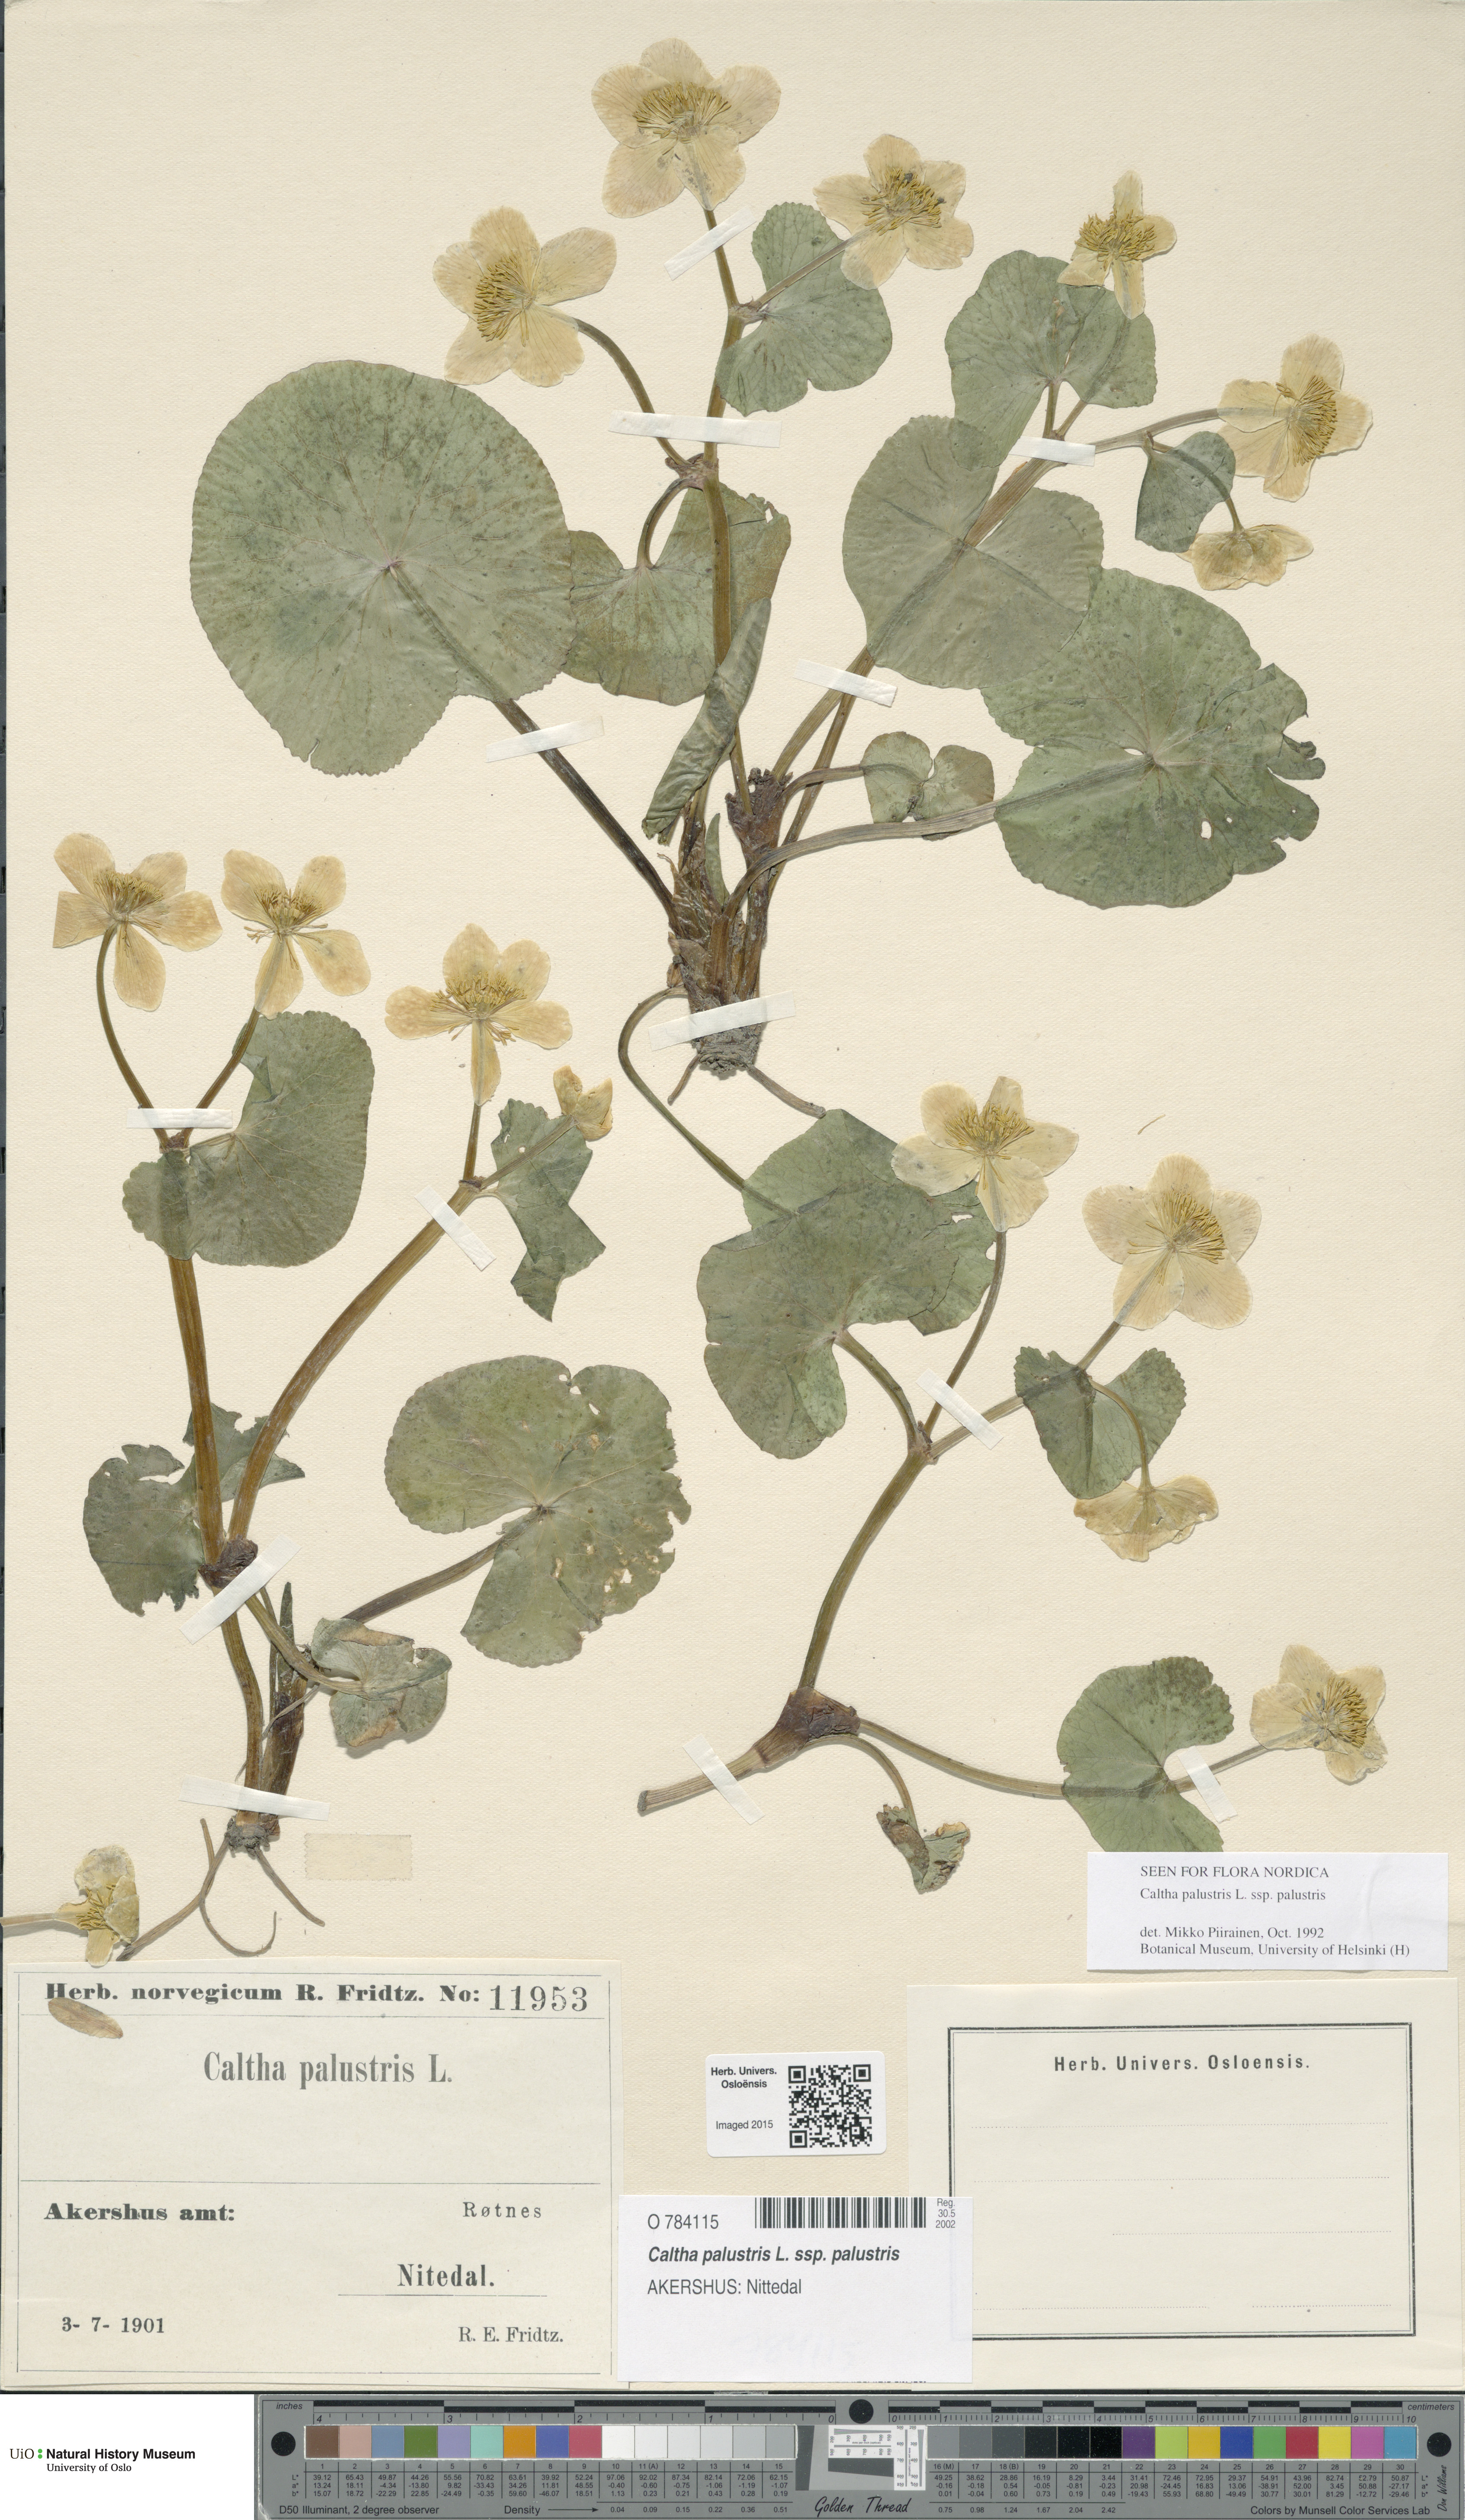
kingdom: Plantae
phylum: Tracheophyta
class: Magnoliopsida
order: Ranunculales
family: Ranunculaceae
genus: Caltha
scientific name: Caltha palustris
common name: Marsh marigold
